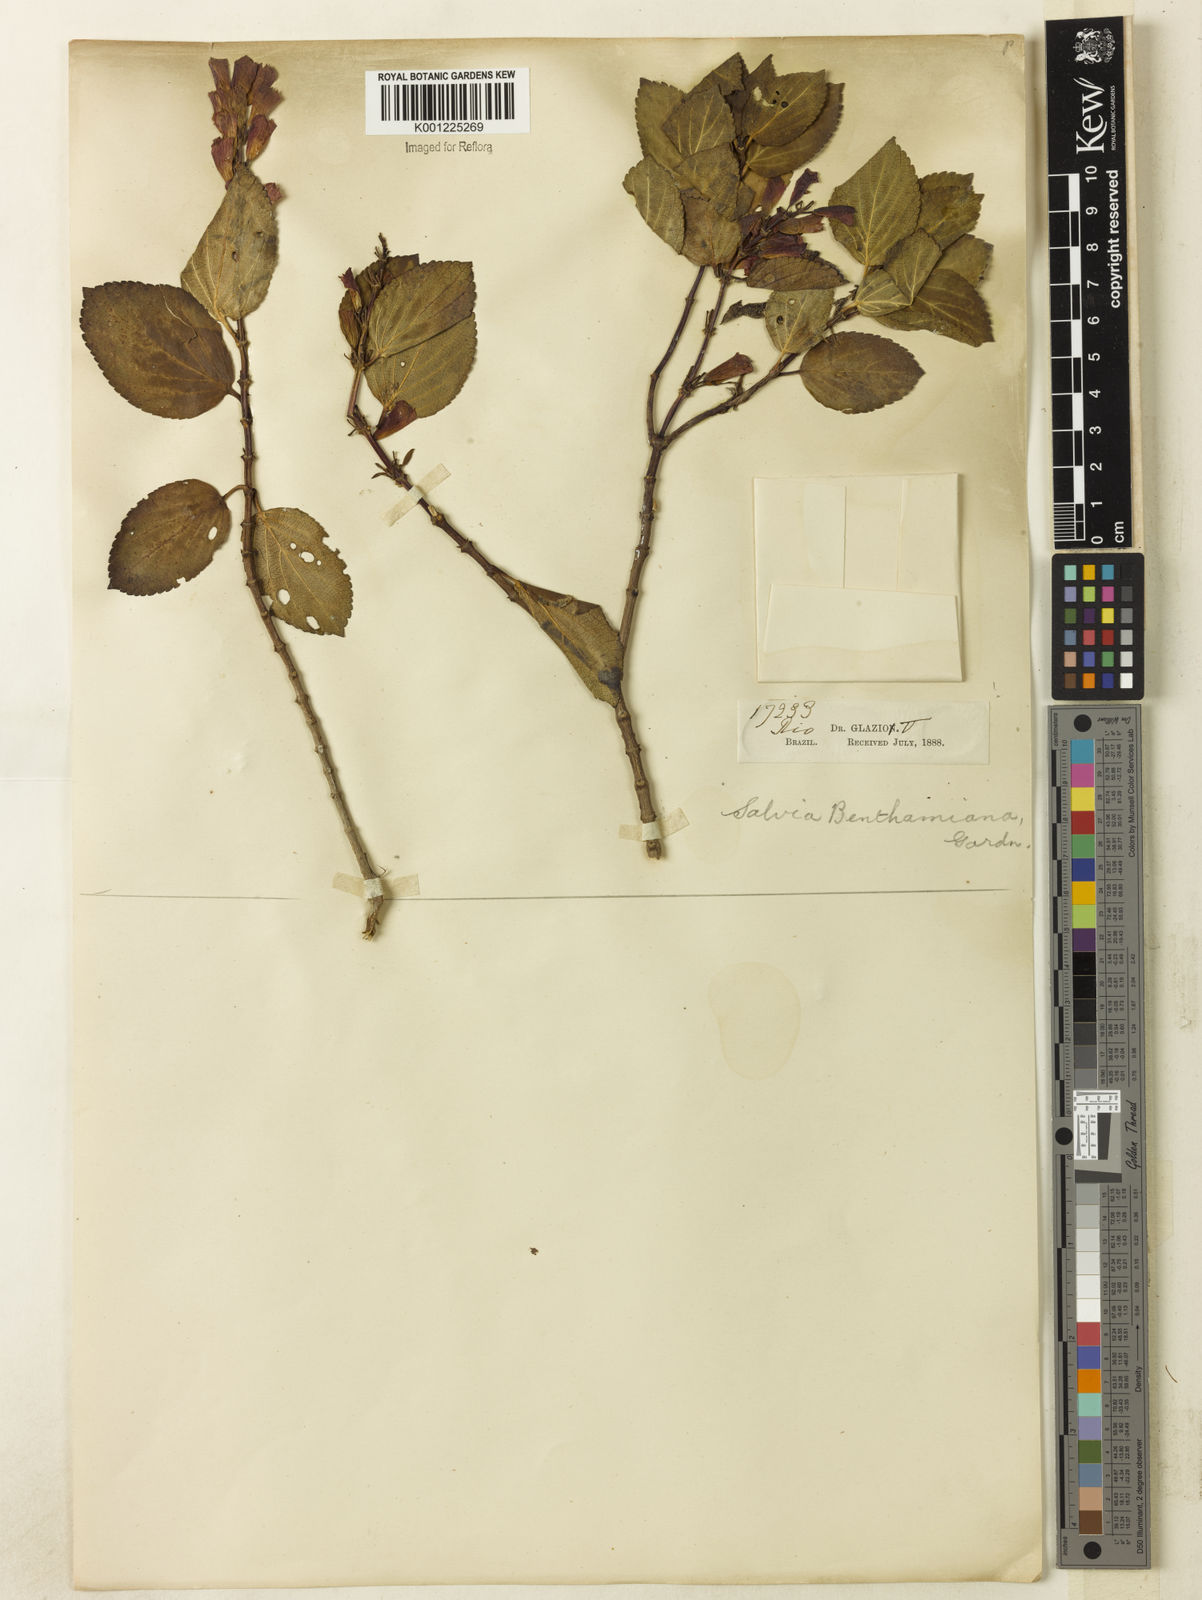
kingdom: Plantae
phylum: Tracheophyta
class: Magnoliopsida
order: Lamiales
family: Lamiaceae
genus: Salvia
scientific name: Salvia
